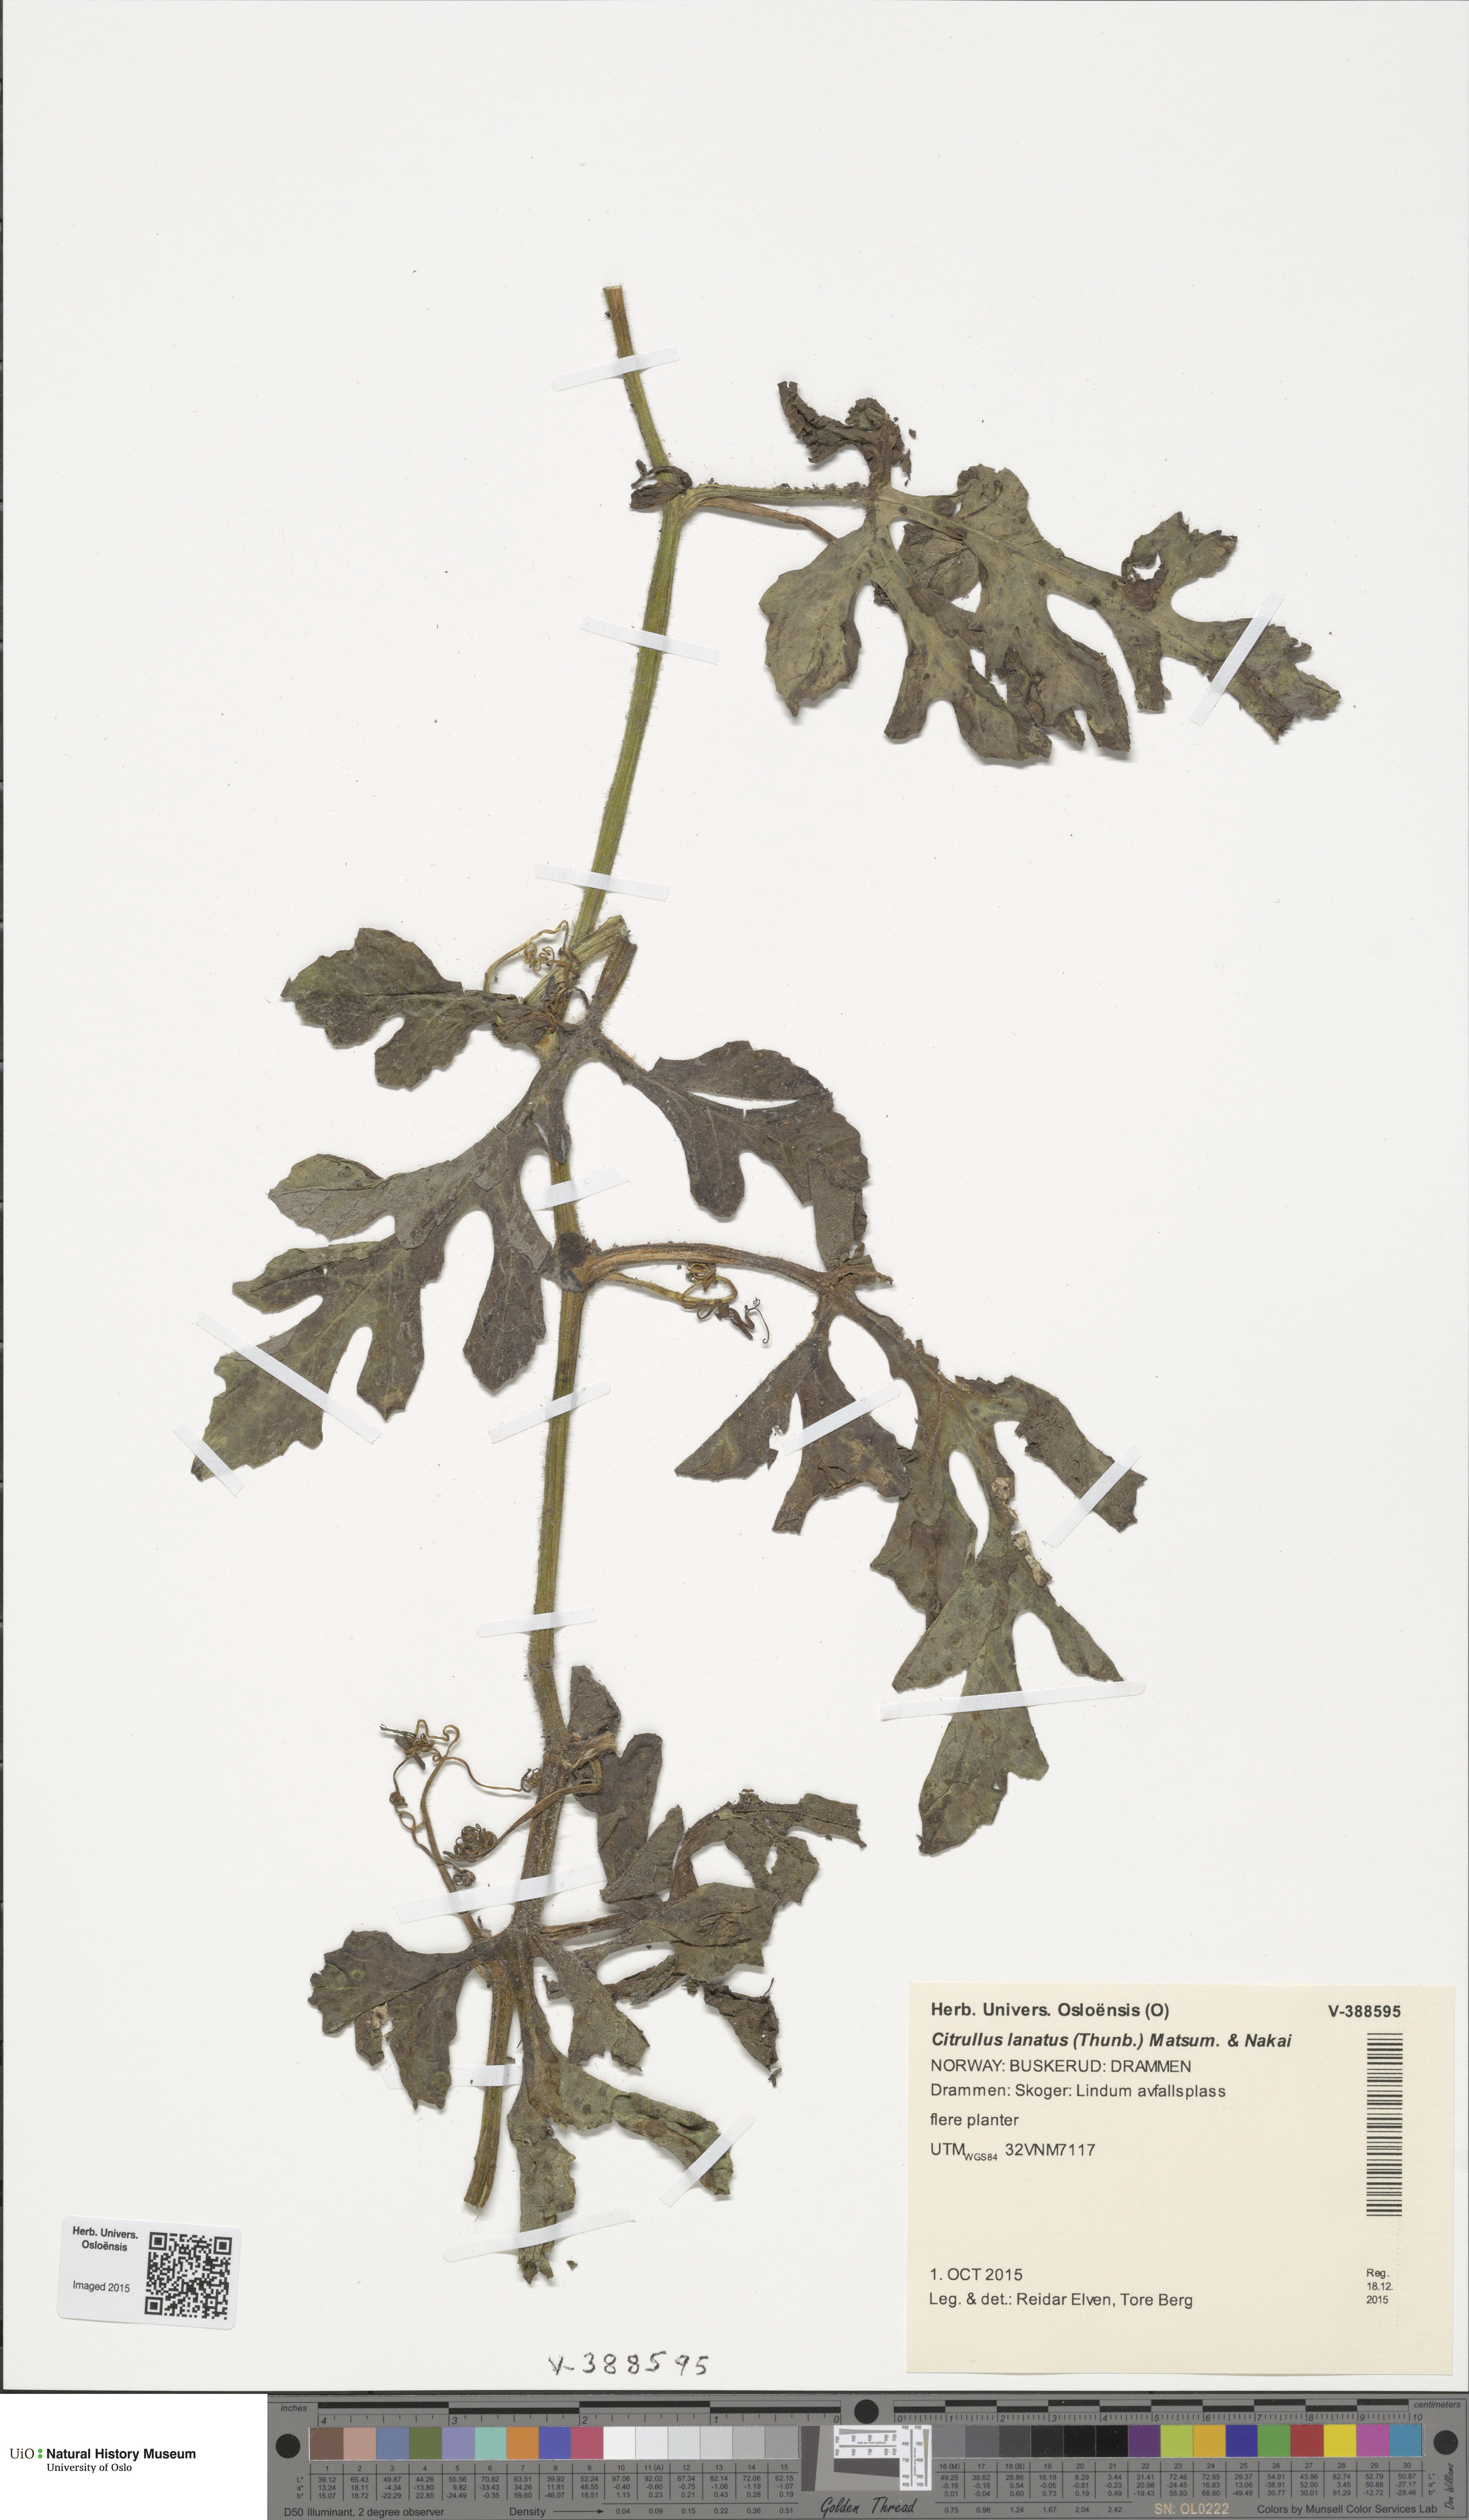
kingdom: Plantae
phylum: Tracheophyta
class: Magnoliopsida
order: Cucurbitales
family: Cucurbitaceae
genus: Citrullus
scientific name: Citrullus lanatus
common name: Watermelon
